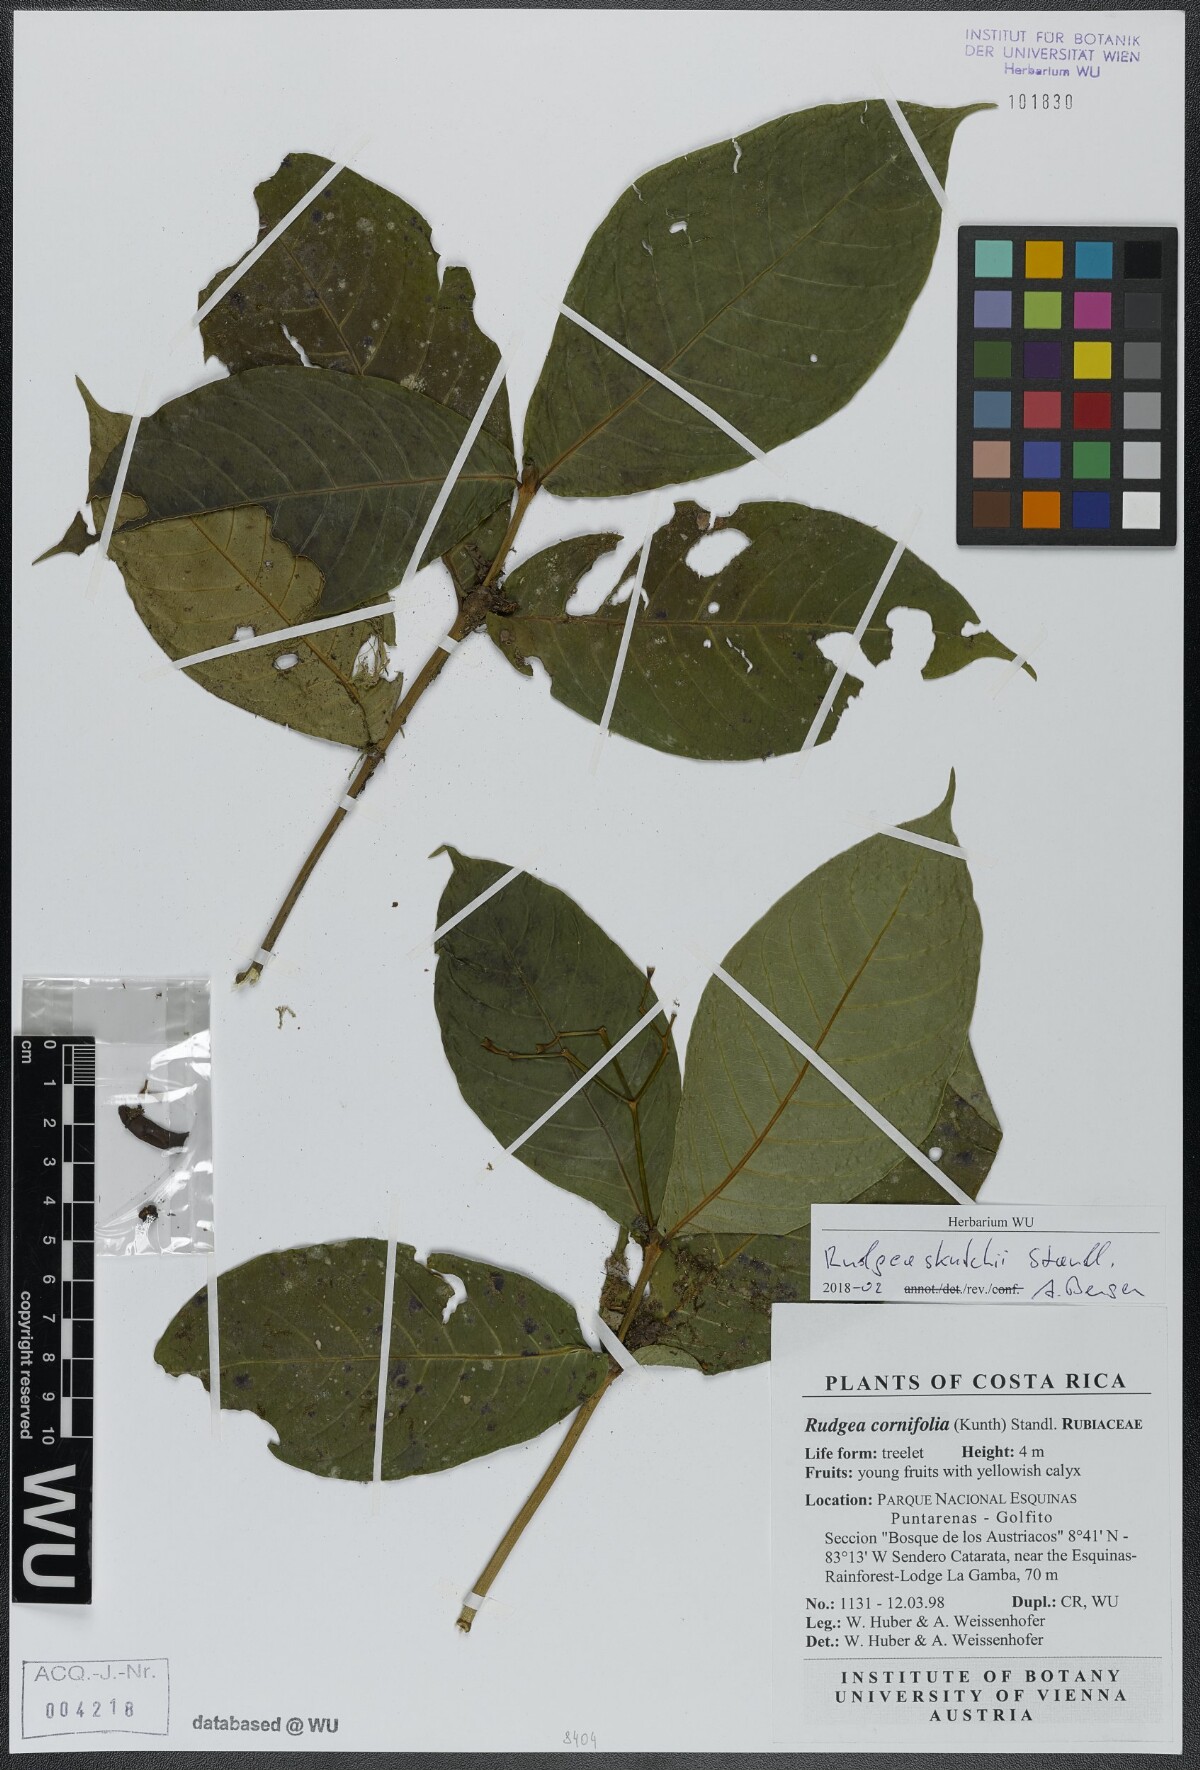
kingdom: Plantae
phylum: Tracheophyta
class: Magnoliopsida
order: Gentianales
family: Rubiaceae
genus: Rudgea
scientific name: Rudgea skutchii
